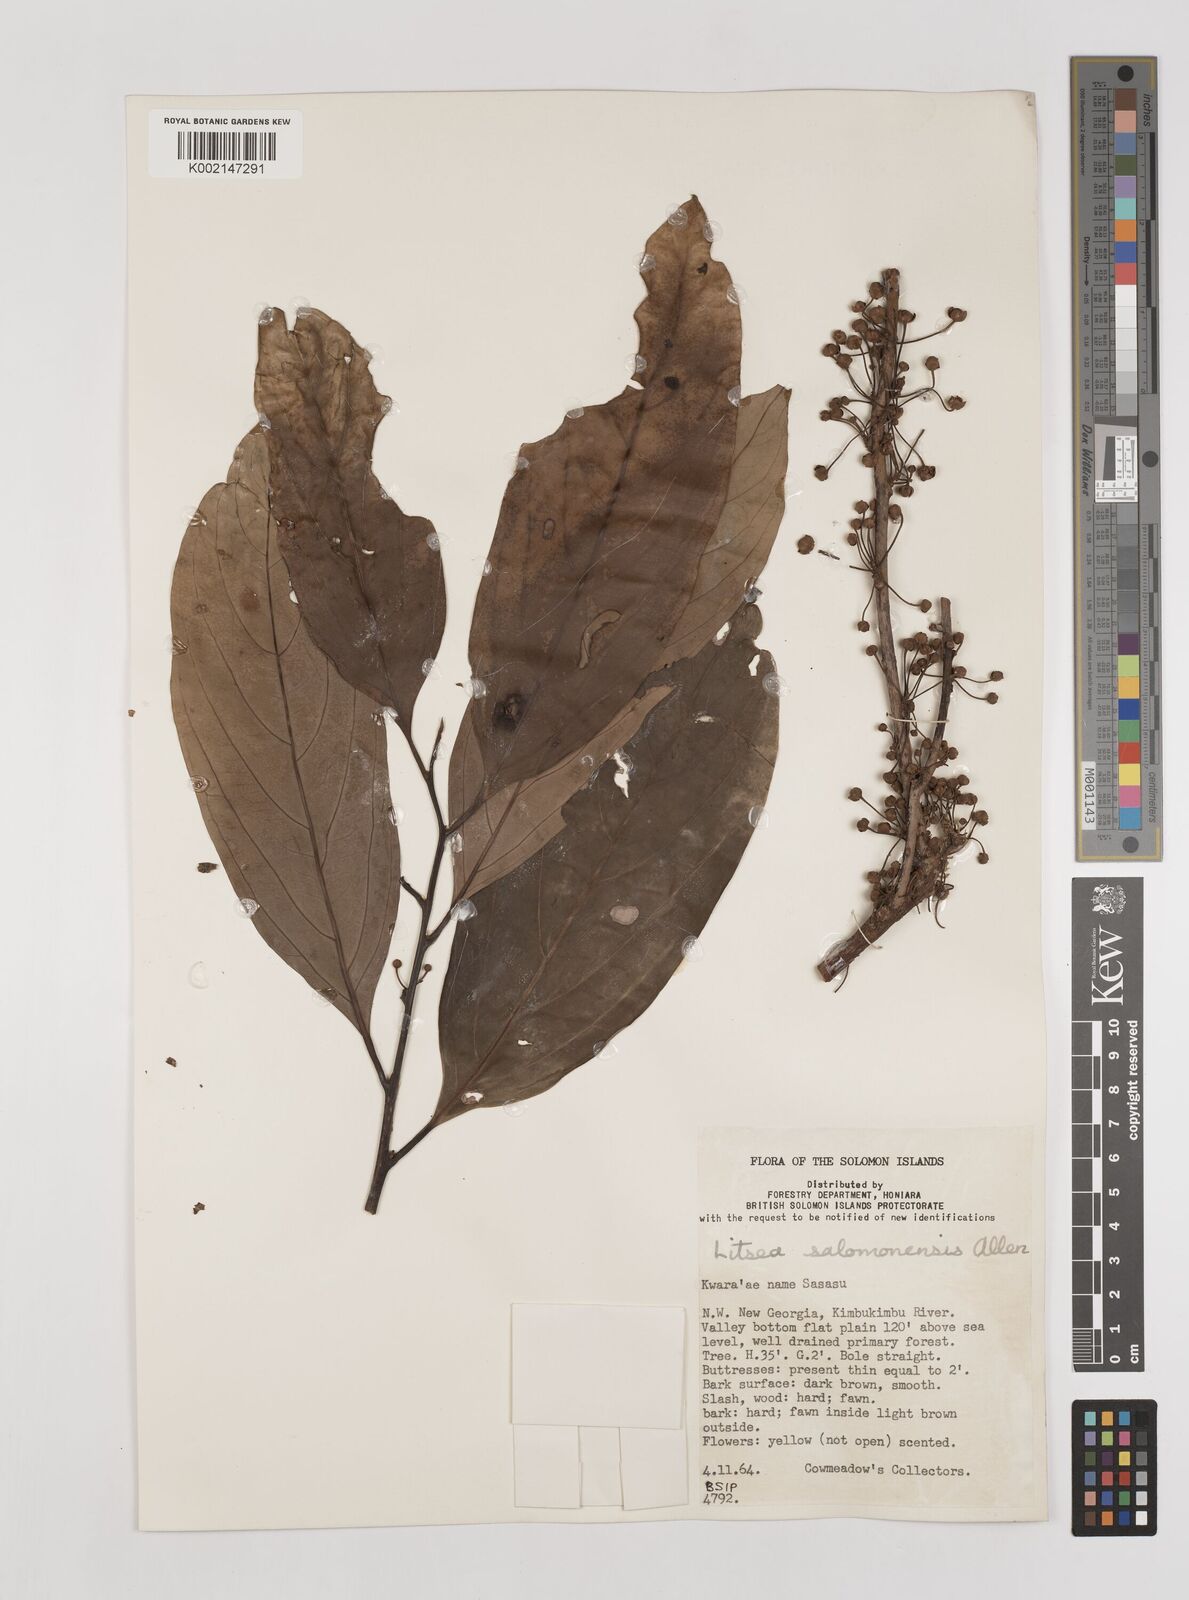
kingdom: Plantae
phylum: Tracheophyta
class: Magnoliopsida
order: Laurales
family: Lauraceae
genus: Litsea
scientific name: Litsea timoriana
